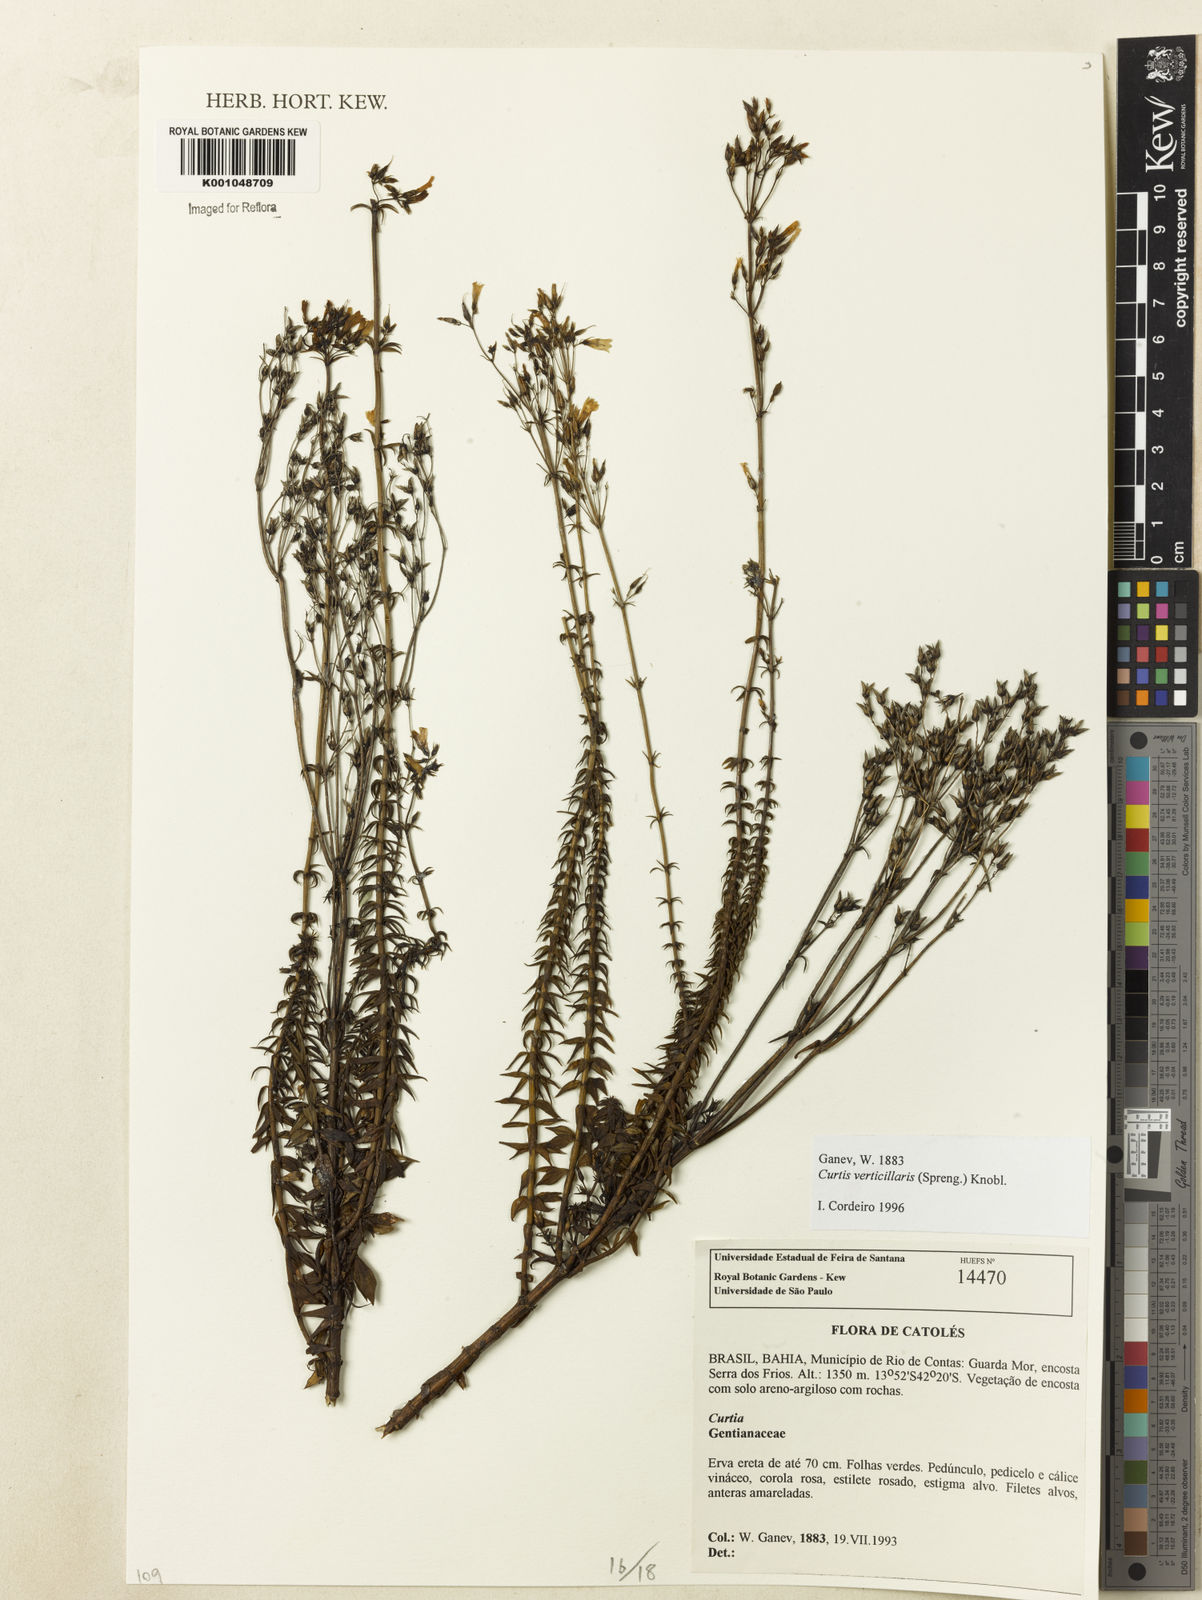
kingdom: Plantae
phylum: Tracheophyta
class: Magnoliopsida
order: Gentianales
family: Gentianaceae
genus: Curtia
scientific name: Curtia verticillaris
